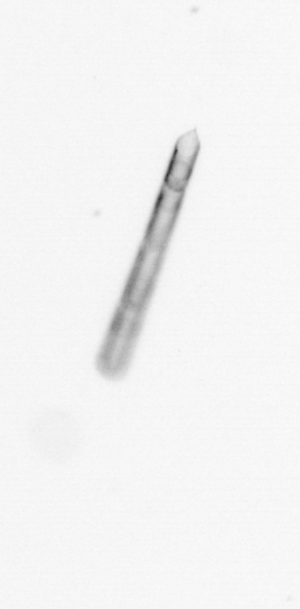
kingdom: Chromista
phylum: Ochrophyta
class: Bacillariophyceae
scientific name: Bacillariophyceae
